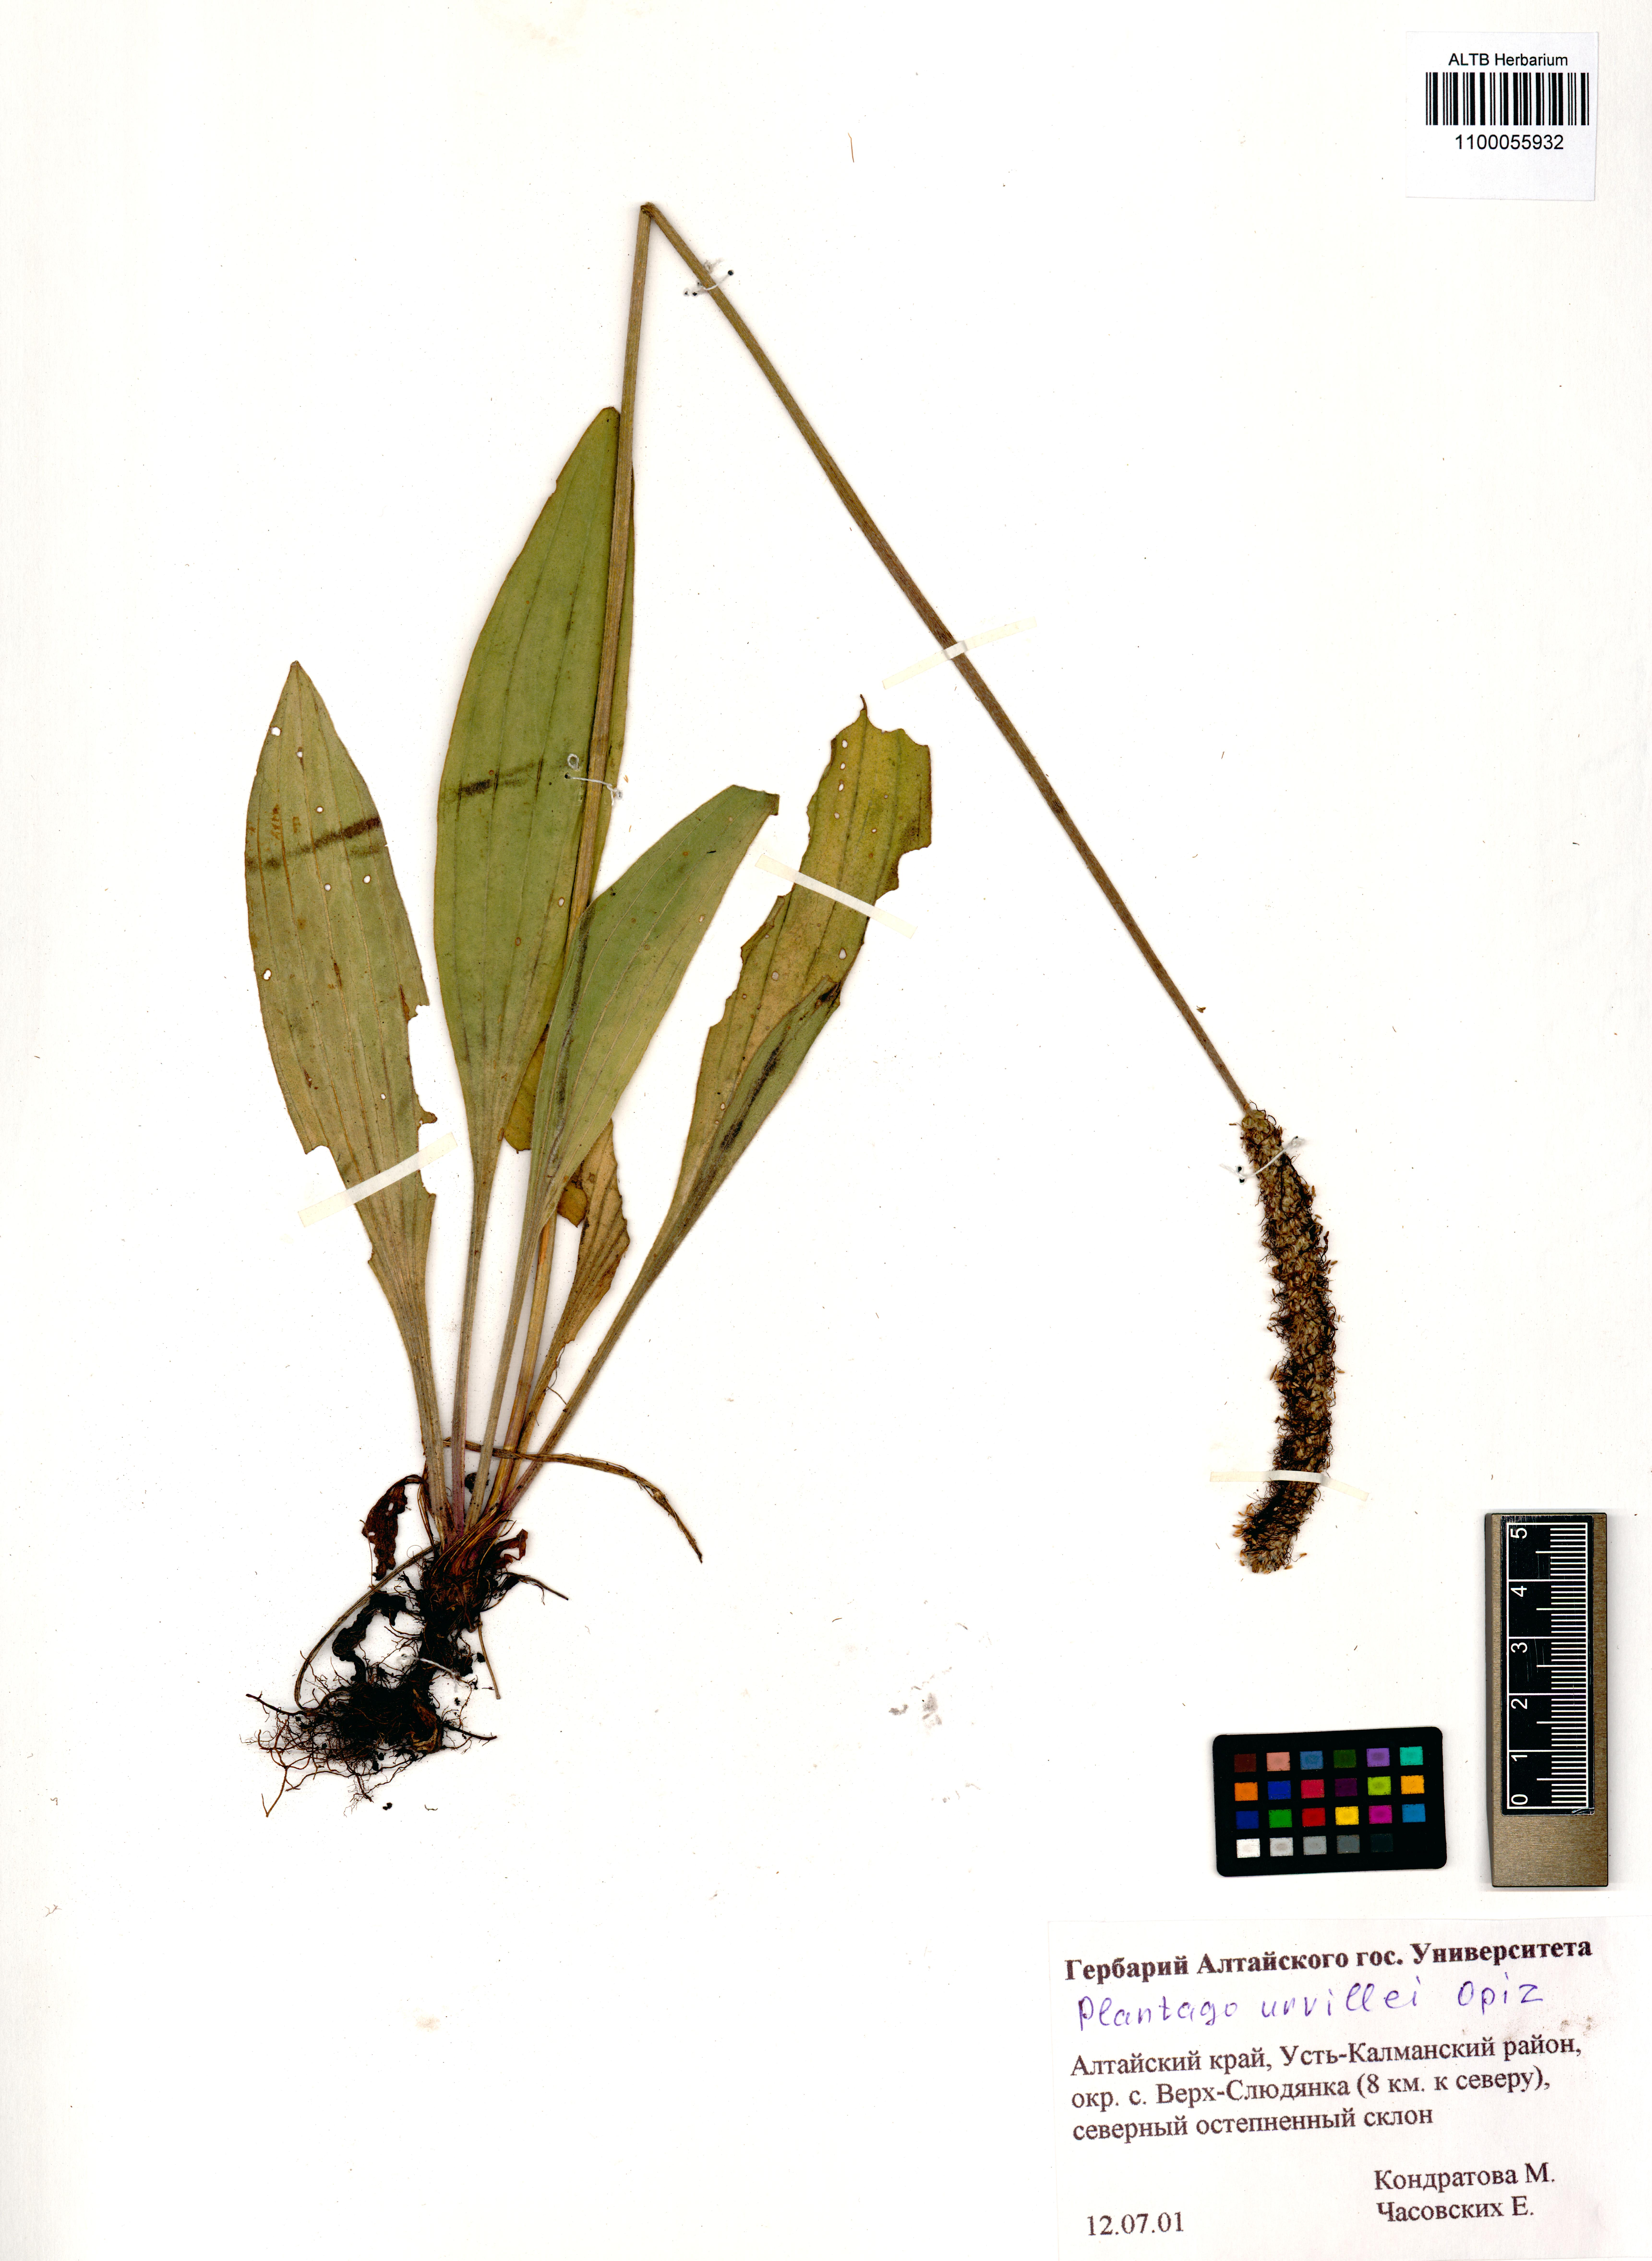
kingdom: Plantae
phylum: Tracheophyta
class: Magnoliopsida
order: Lamiales
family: Plantaginaceae
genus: Plantago
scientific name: Plantago urvillei
